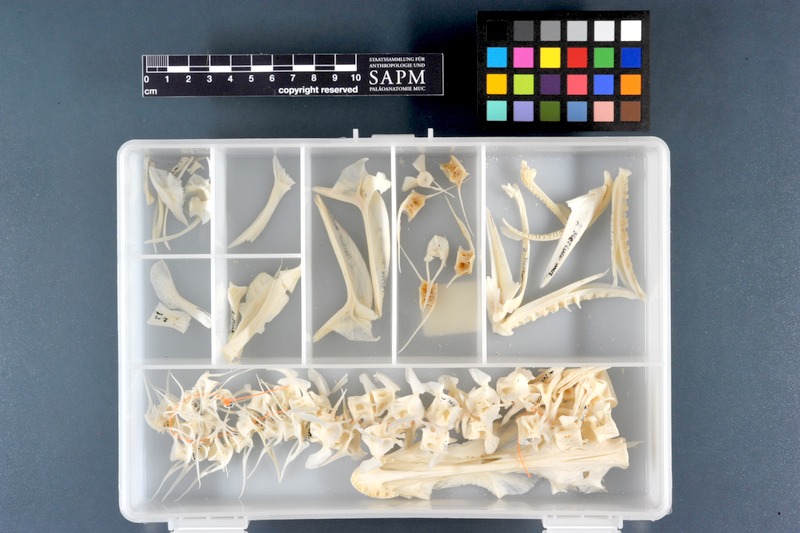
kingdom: Animalia
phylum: Chordata
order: Gadiformes
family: Lotidae
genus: Molva
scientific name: Molva molva
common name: Ling
